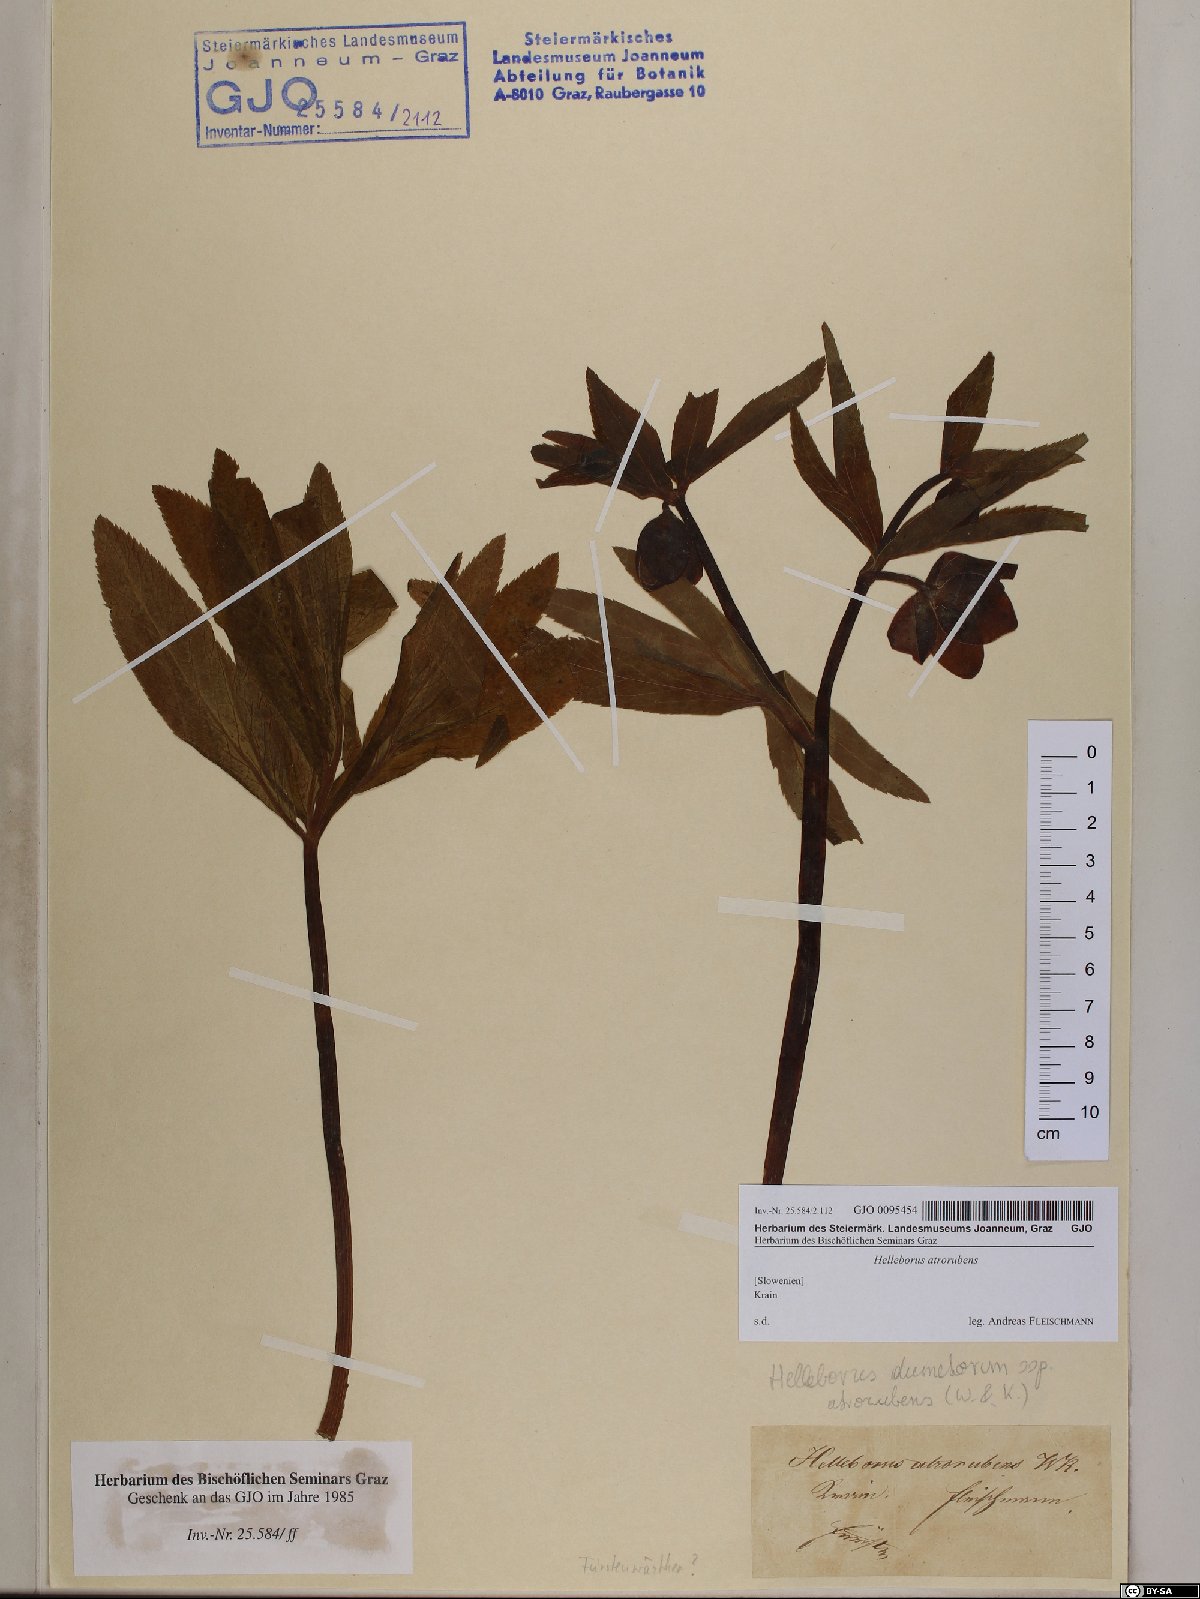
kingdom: Plantae
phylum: Tracheophyta
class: Magnoliopsida
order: Ranunculales
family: Ranunculaceae
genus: Helleborus
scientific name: Helleborus dumetorum
